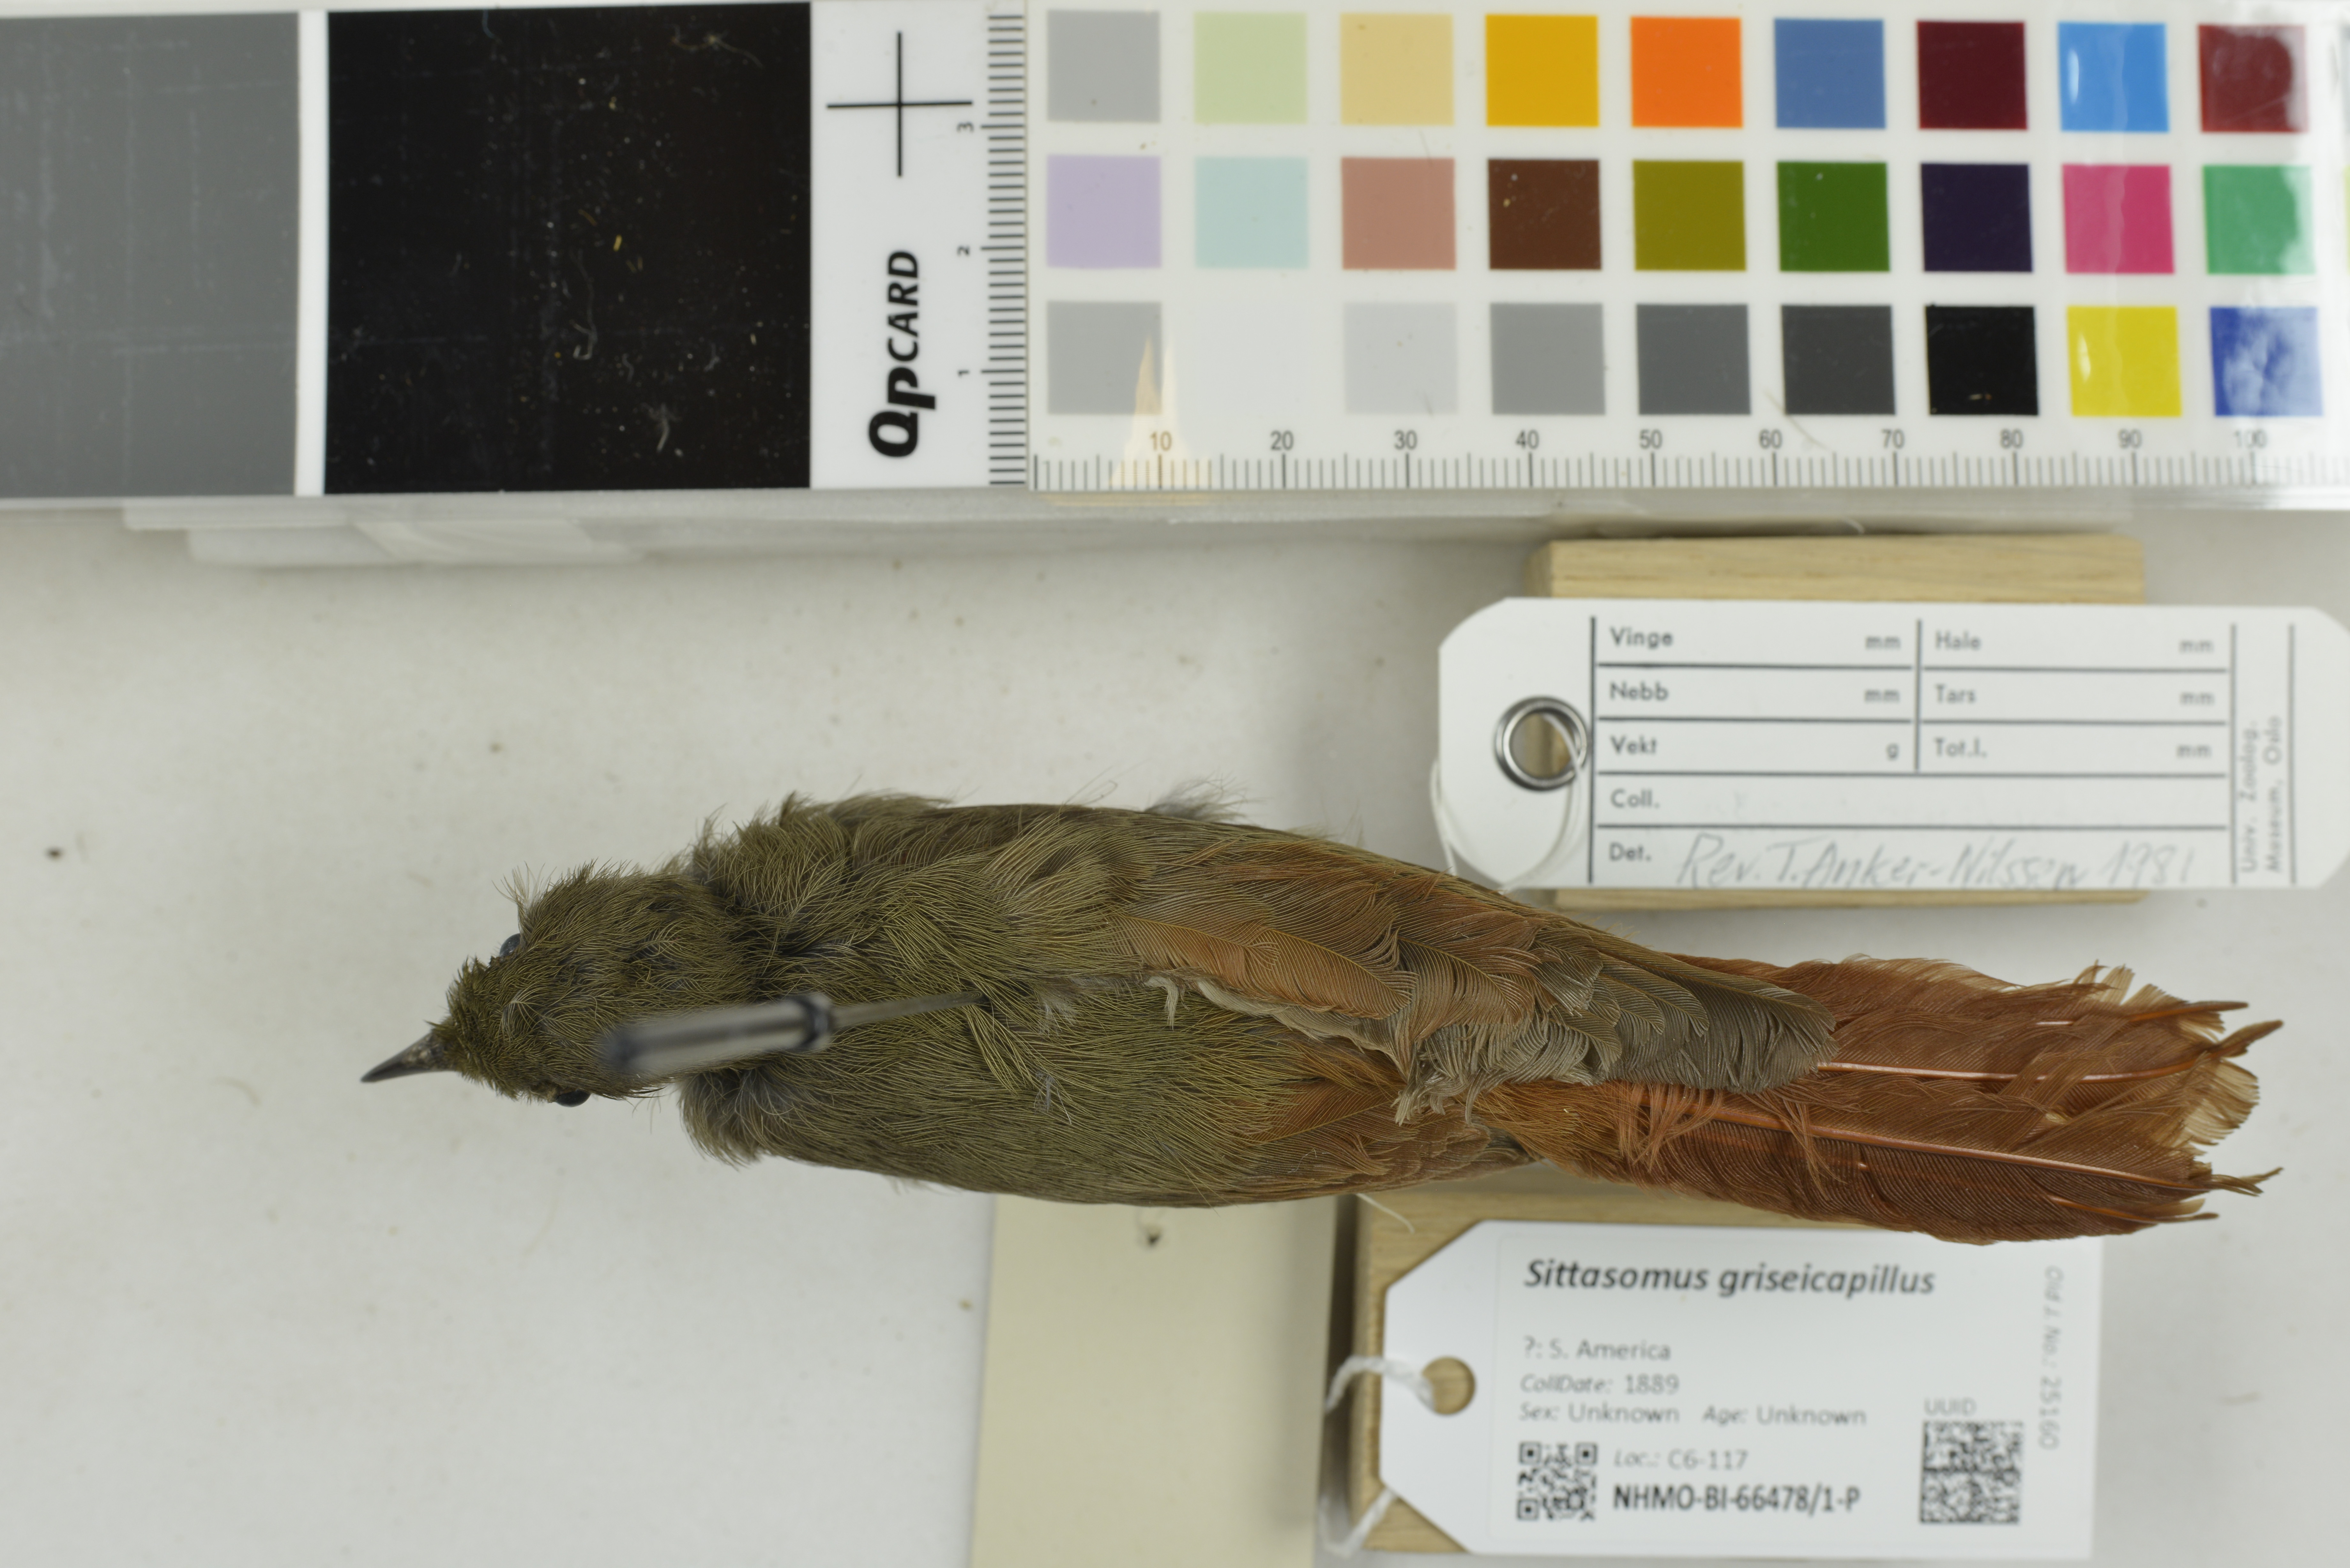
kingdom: Animalia
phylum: Chordata
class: Aves
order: Passeriformes
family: Furnariidae
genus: Sittasomus
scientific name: Sittasomus griseicapillus
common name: Olivaceous woodcreeper
